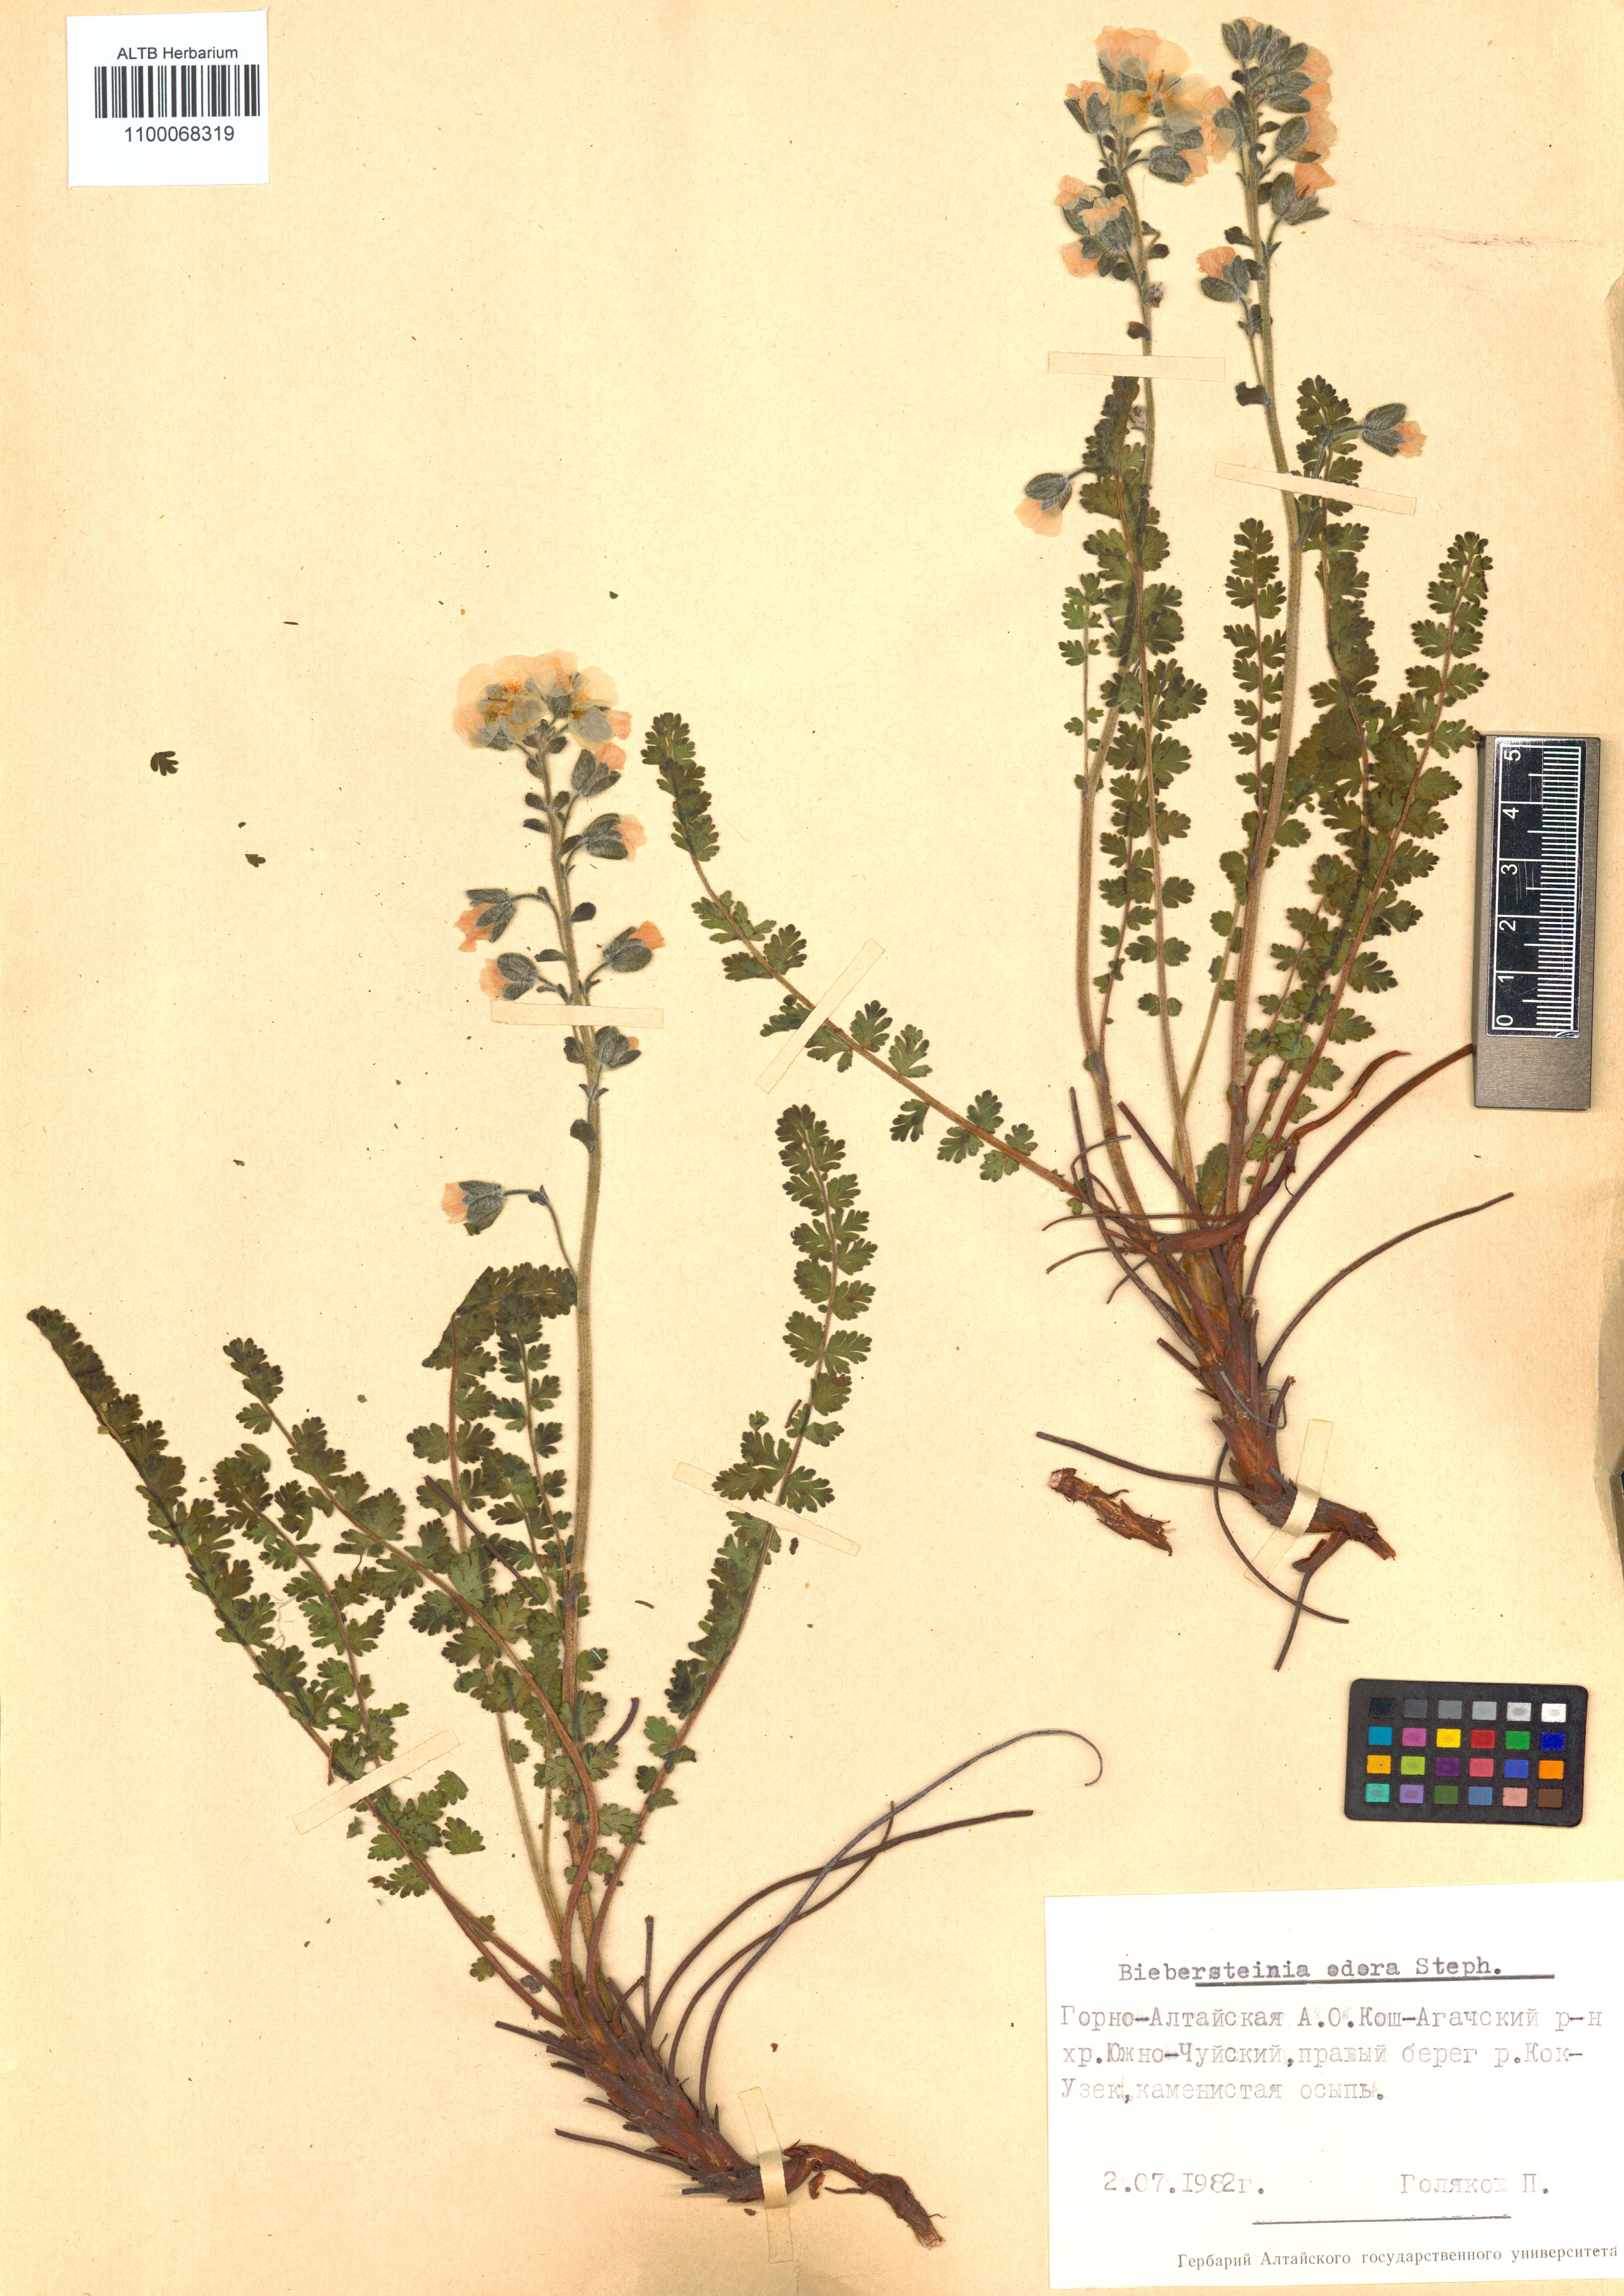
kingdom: Plantae
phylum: Tracheophyta
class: Magnoliopsida
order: Sapindales
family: Biebersteiniaceae
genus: Biebersteinia
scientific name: Biebersteinia odora
